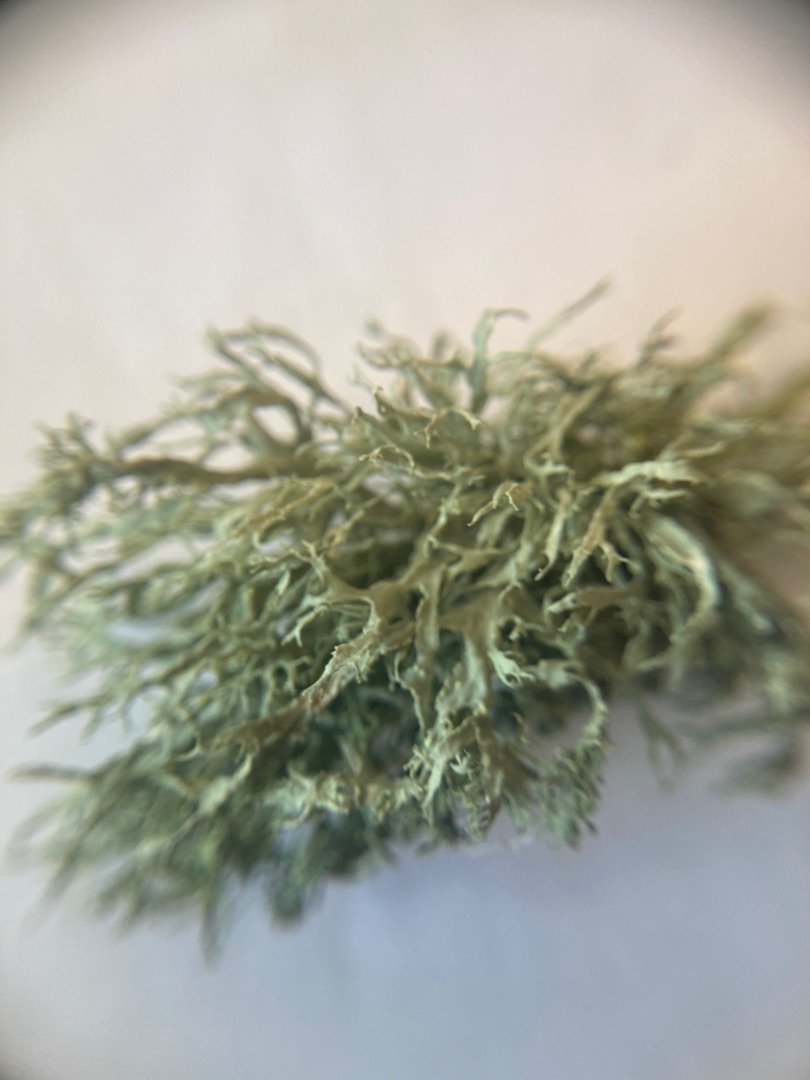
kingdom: Fungi
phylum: Ascomycota
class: Lecanoromycetes
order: Lecanorales
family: Ramalinaceae
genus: Ramalina
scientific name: Ramalina farinacea
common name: Melet grenlav
